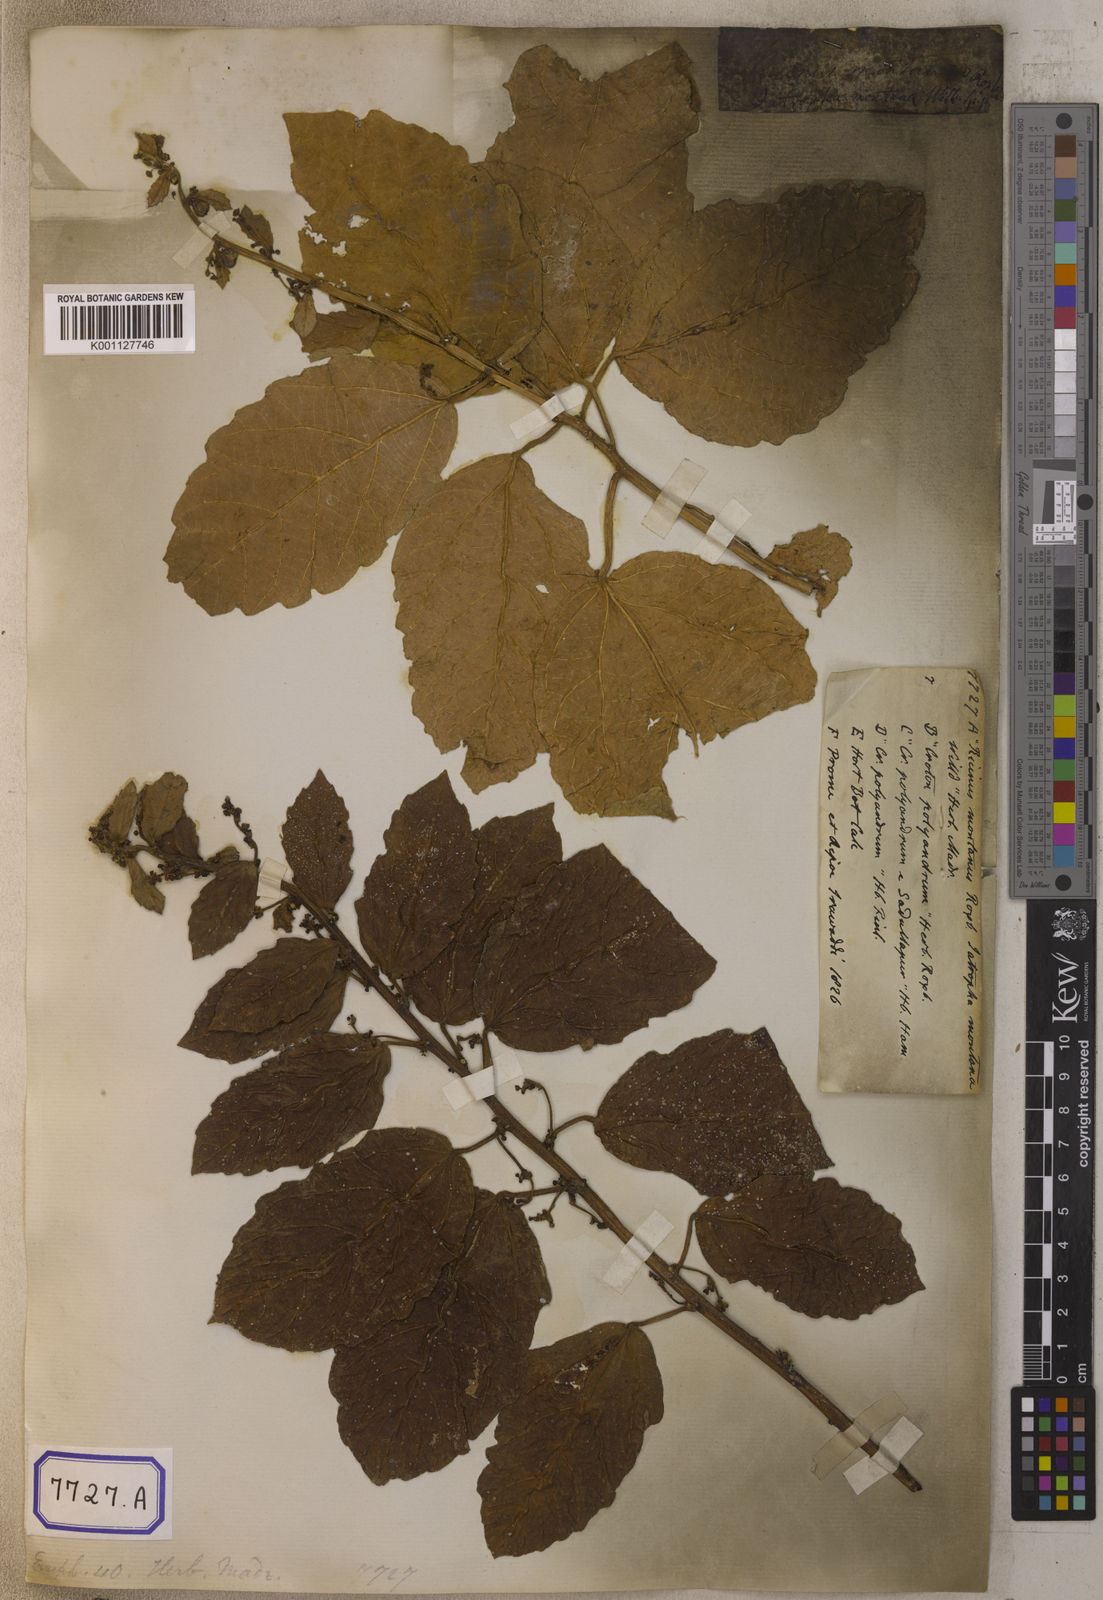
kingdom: Plantae
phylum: Tracheophyta
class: Magnoliopsida
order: Malpighiales
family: Euphorbiaceae
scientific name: Euphorbiaceae
